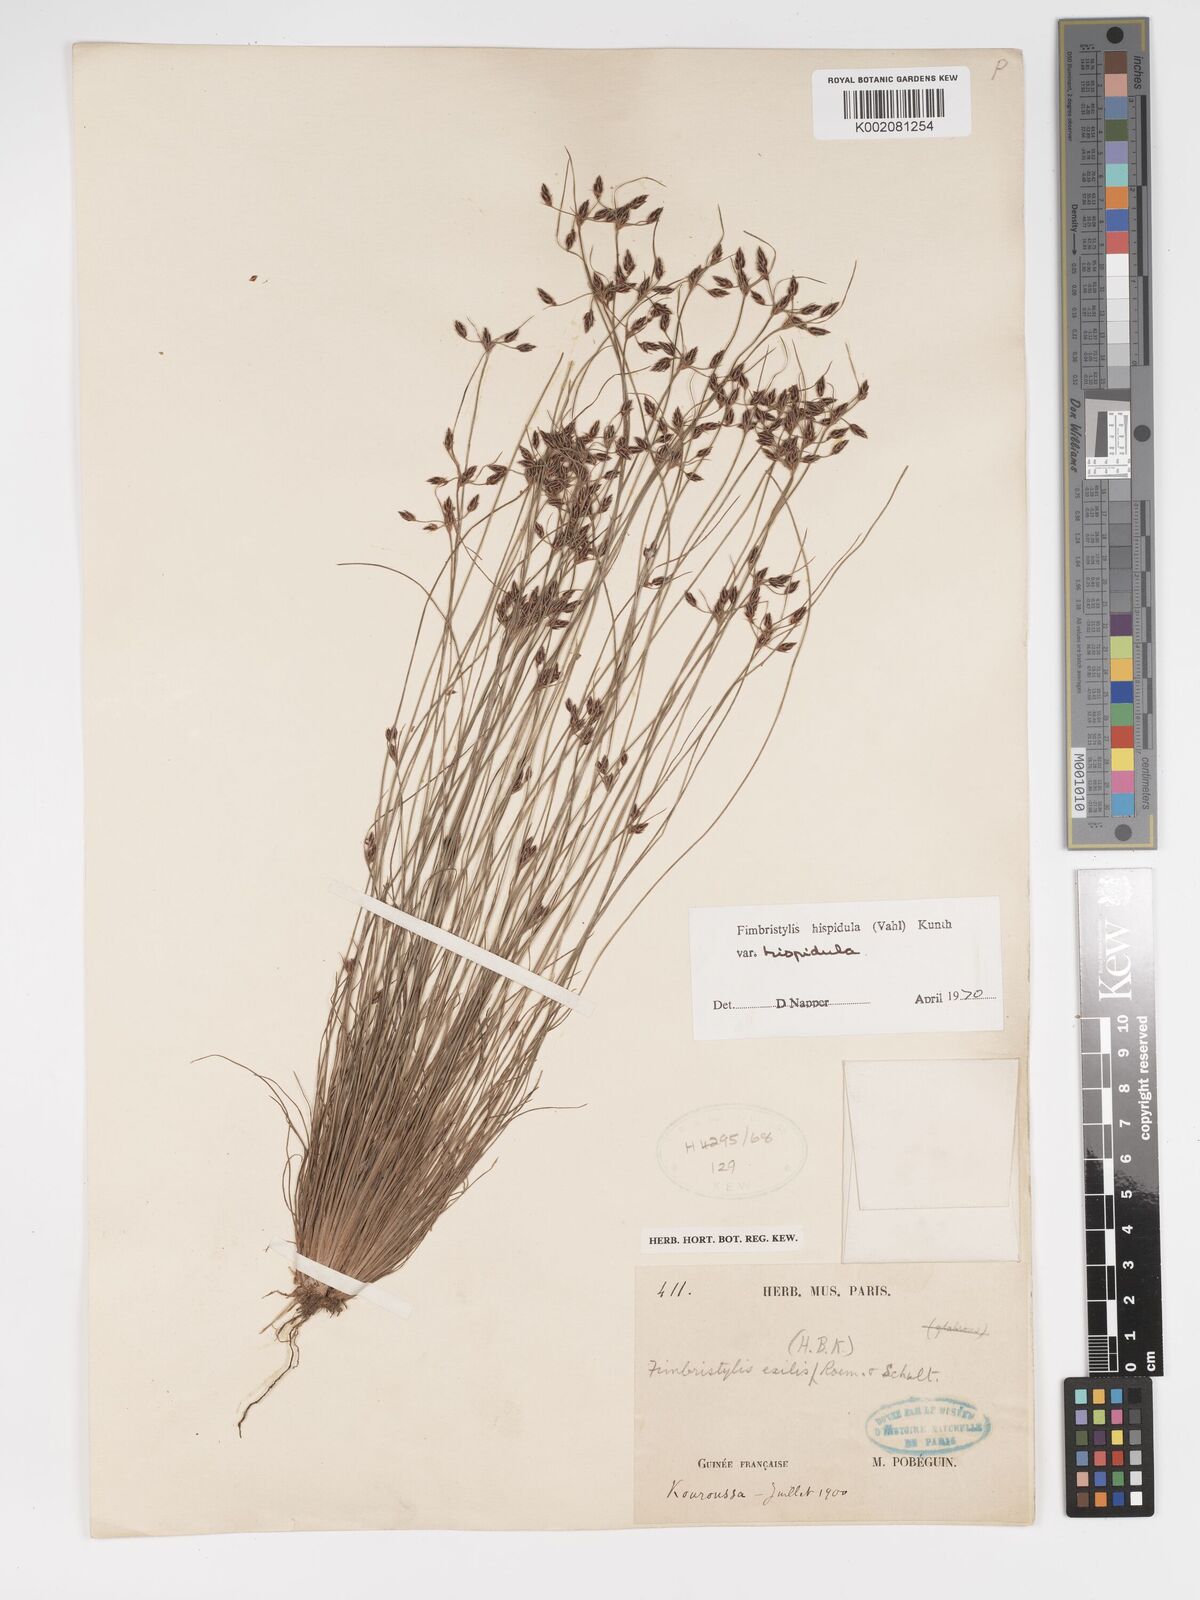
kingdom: Plantae
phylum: Tracheophyta
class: Liliopsida
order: Poales
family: Cyperaceae
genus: Bulbostylis
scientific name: Bulbostylis hispidula
